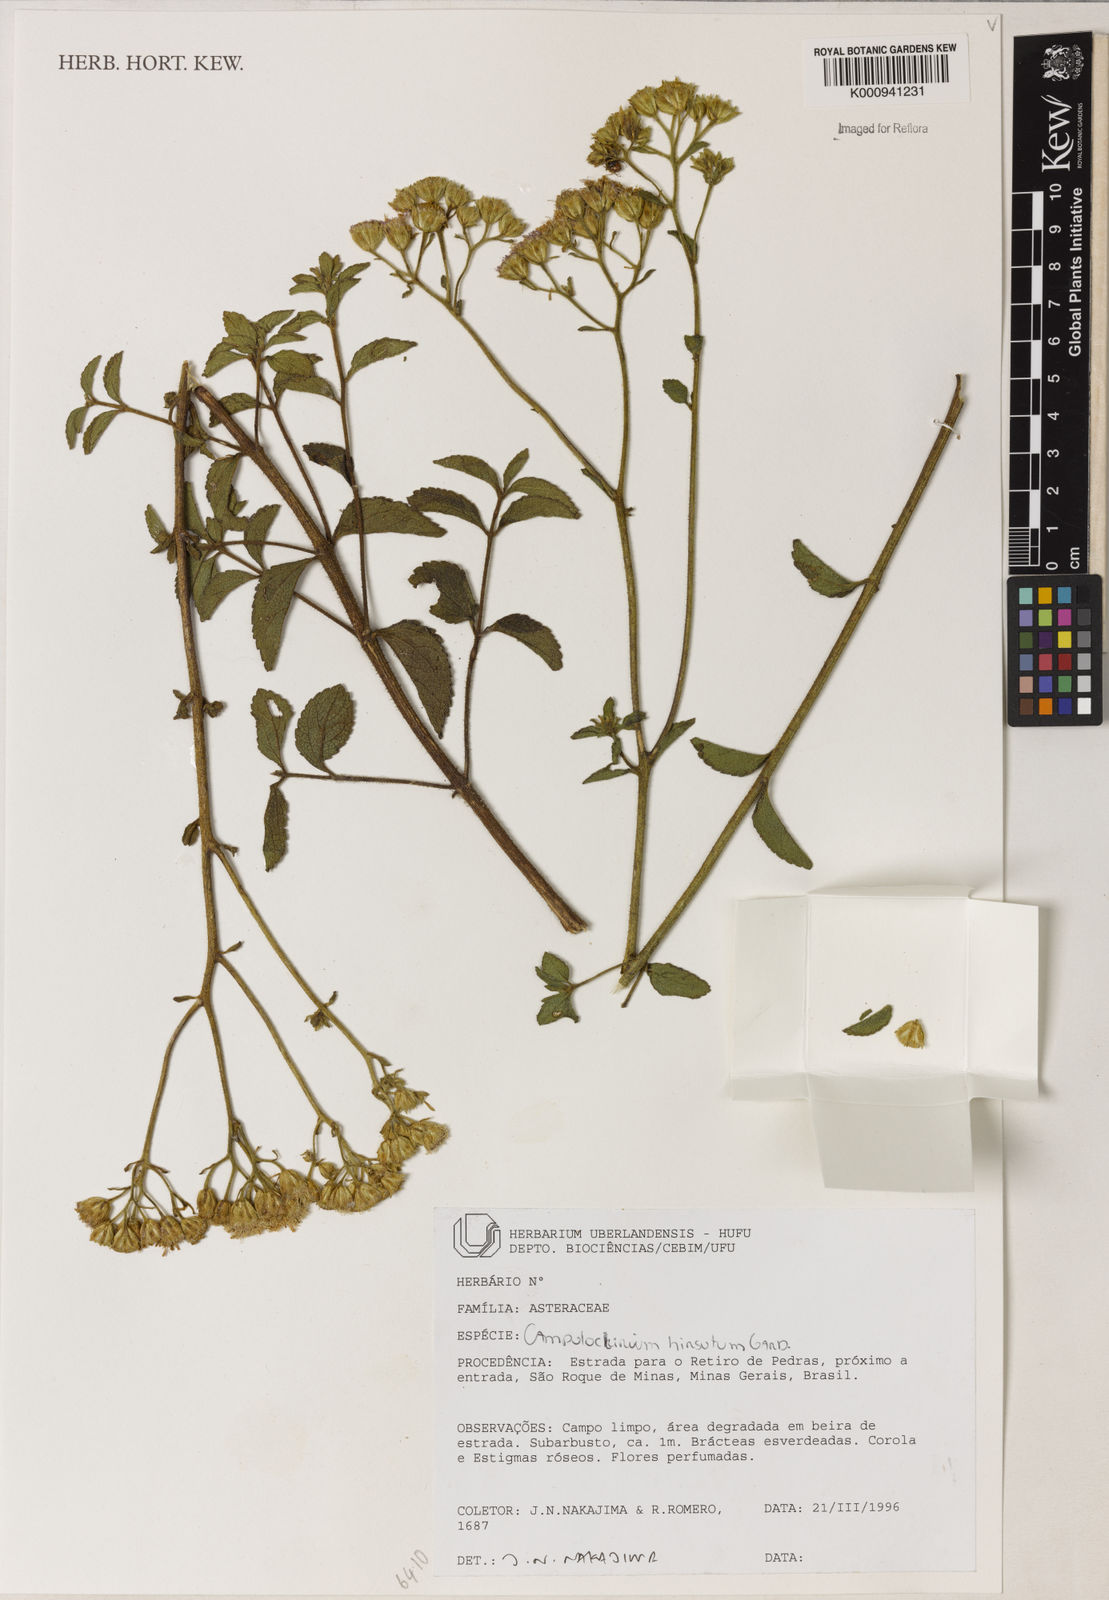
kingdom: Plantae
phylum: Tracheophyta
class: Magnoliopsida
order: Asterales
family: Asteraceae
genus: Campuloclinium
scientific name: Campuloclinium hirsutum
